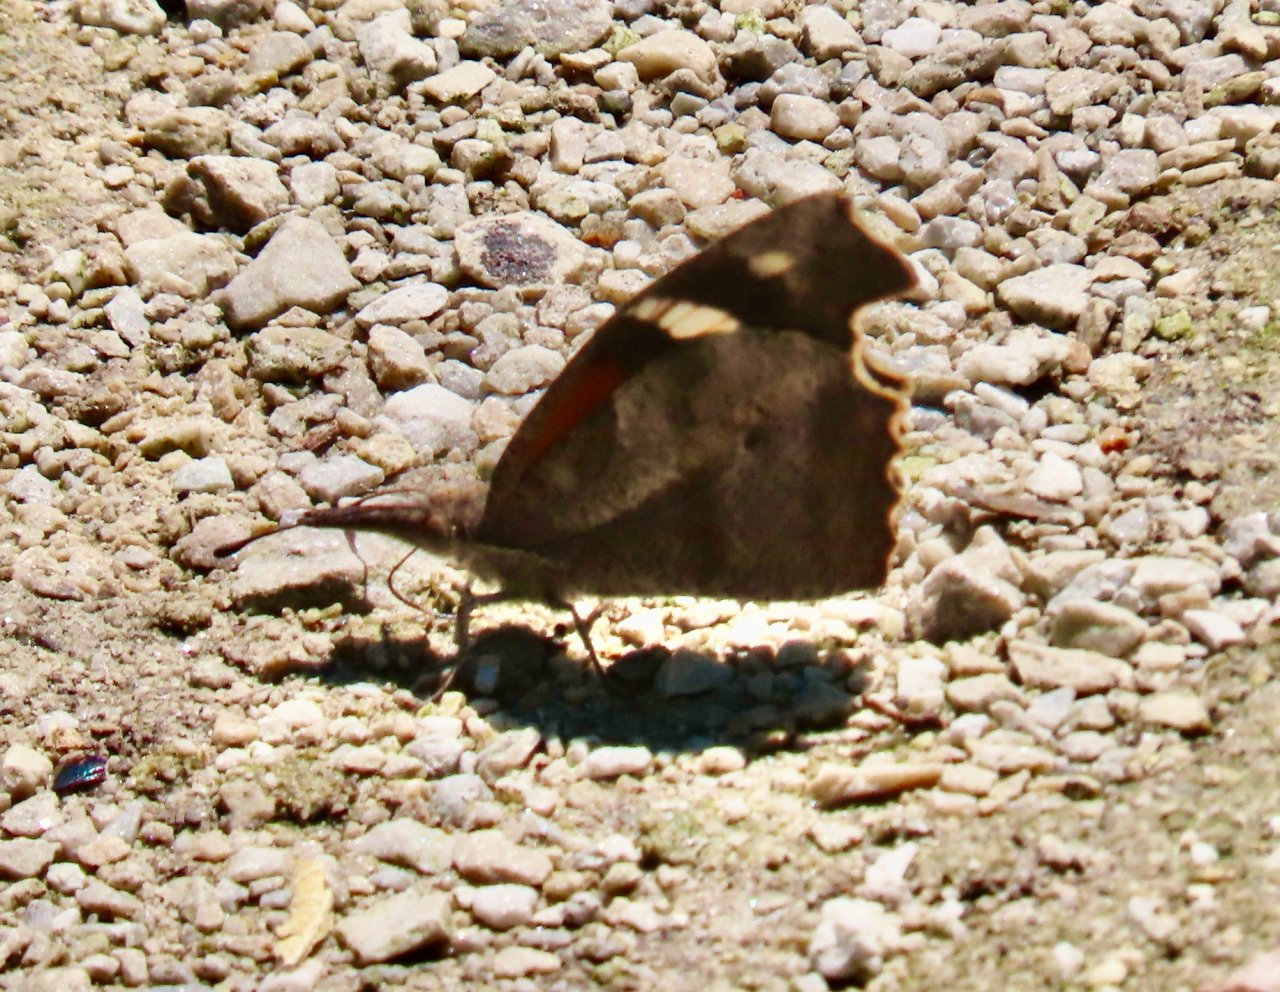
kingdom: Animalia
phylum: Arthropoda
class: Insecta
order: Lepidoptera
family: Nymphalidae
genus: Libytheana
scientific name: Libytheana carinenta
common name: American Snout
